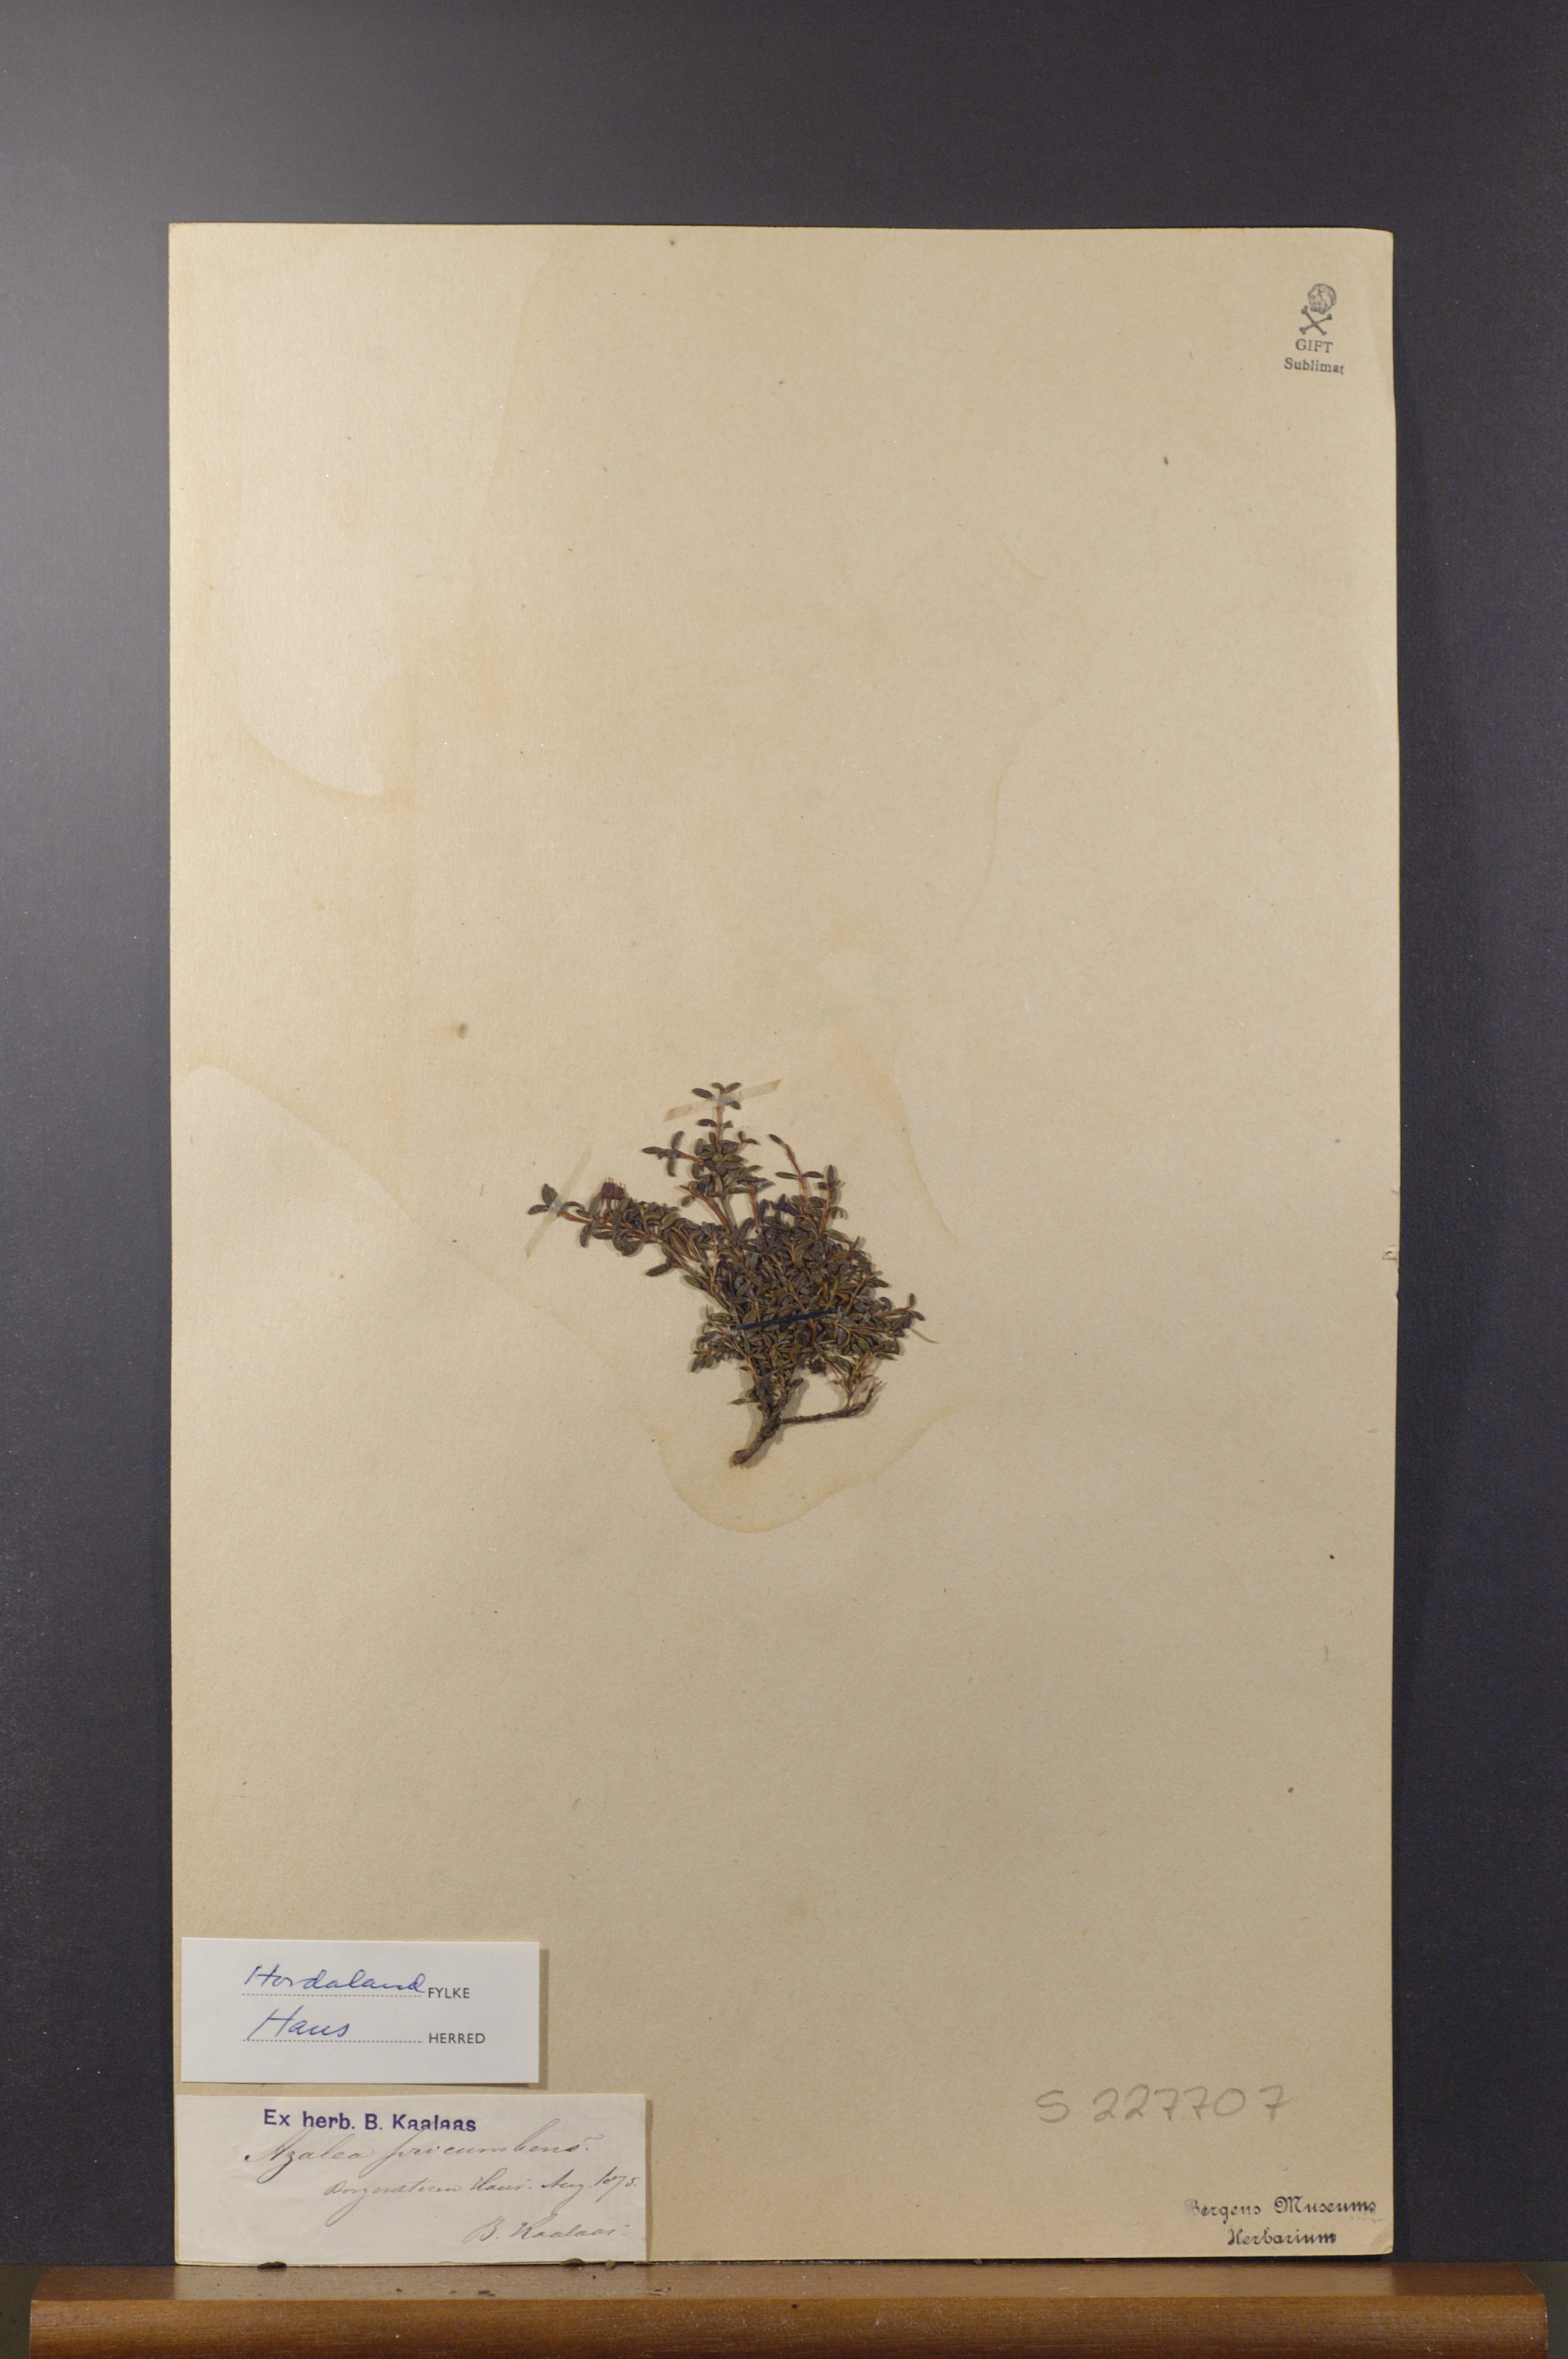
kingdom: Plantae
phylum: Tracheophyta
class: Magnoliopsida
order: Ericales
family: Ericaceae
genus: Kalmia
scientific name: Kalmia procumbens
